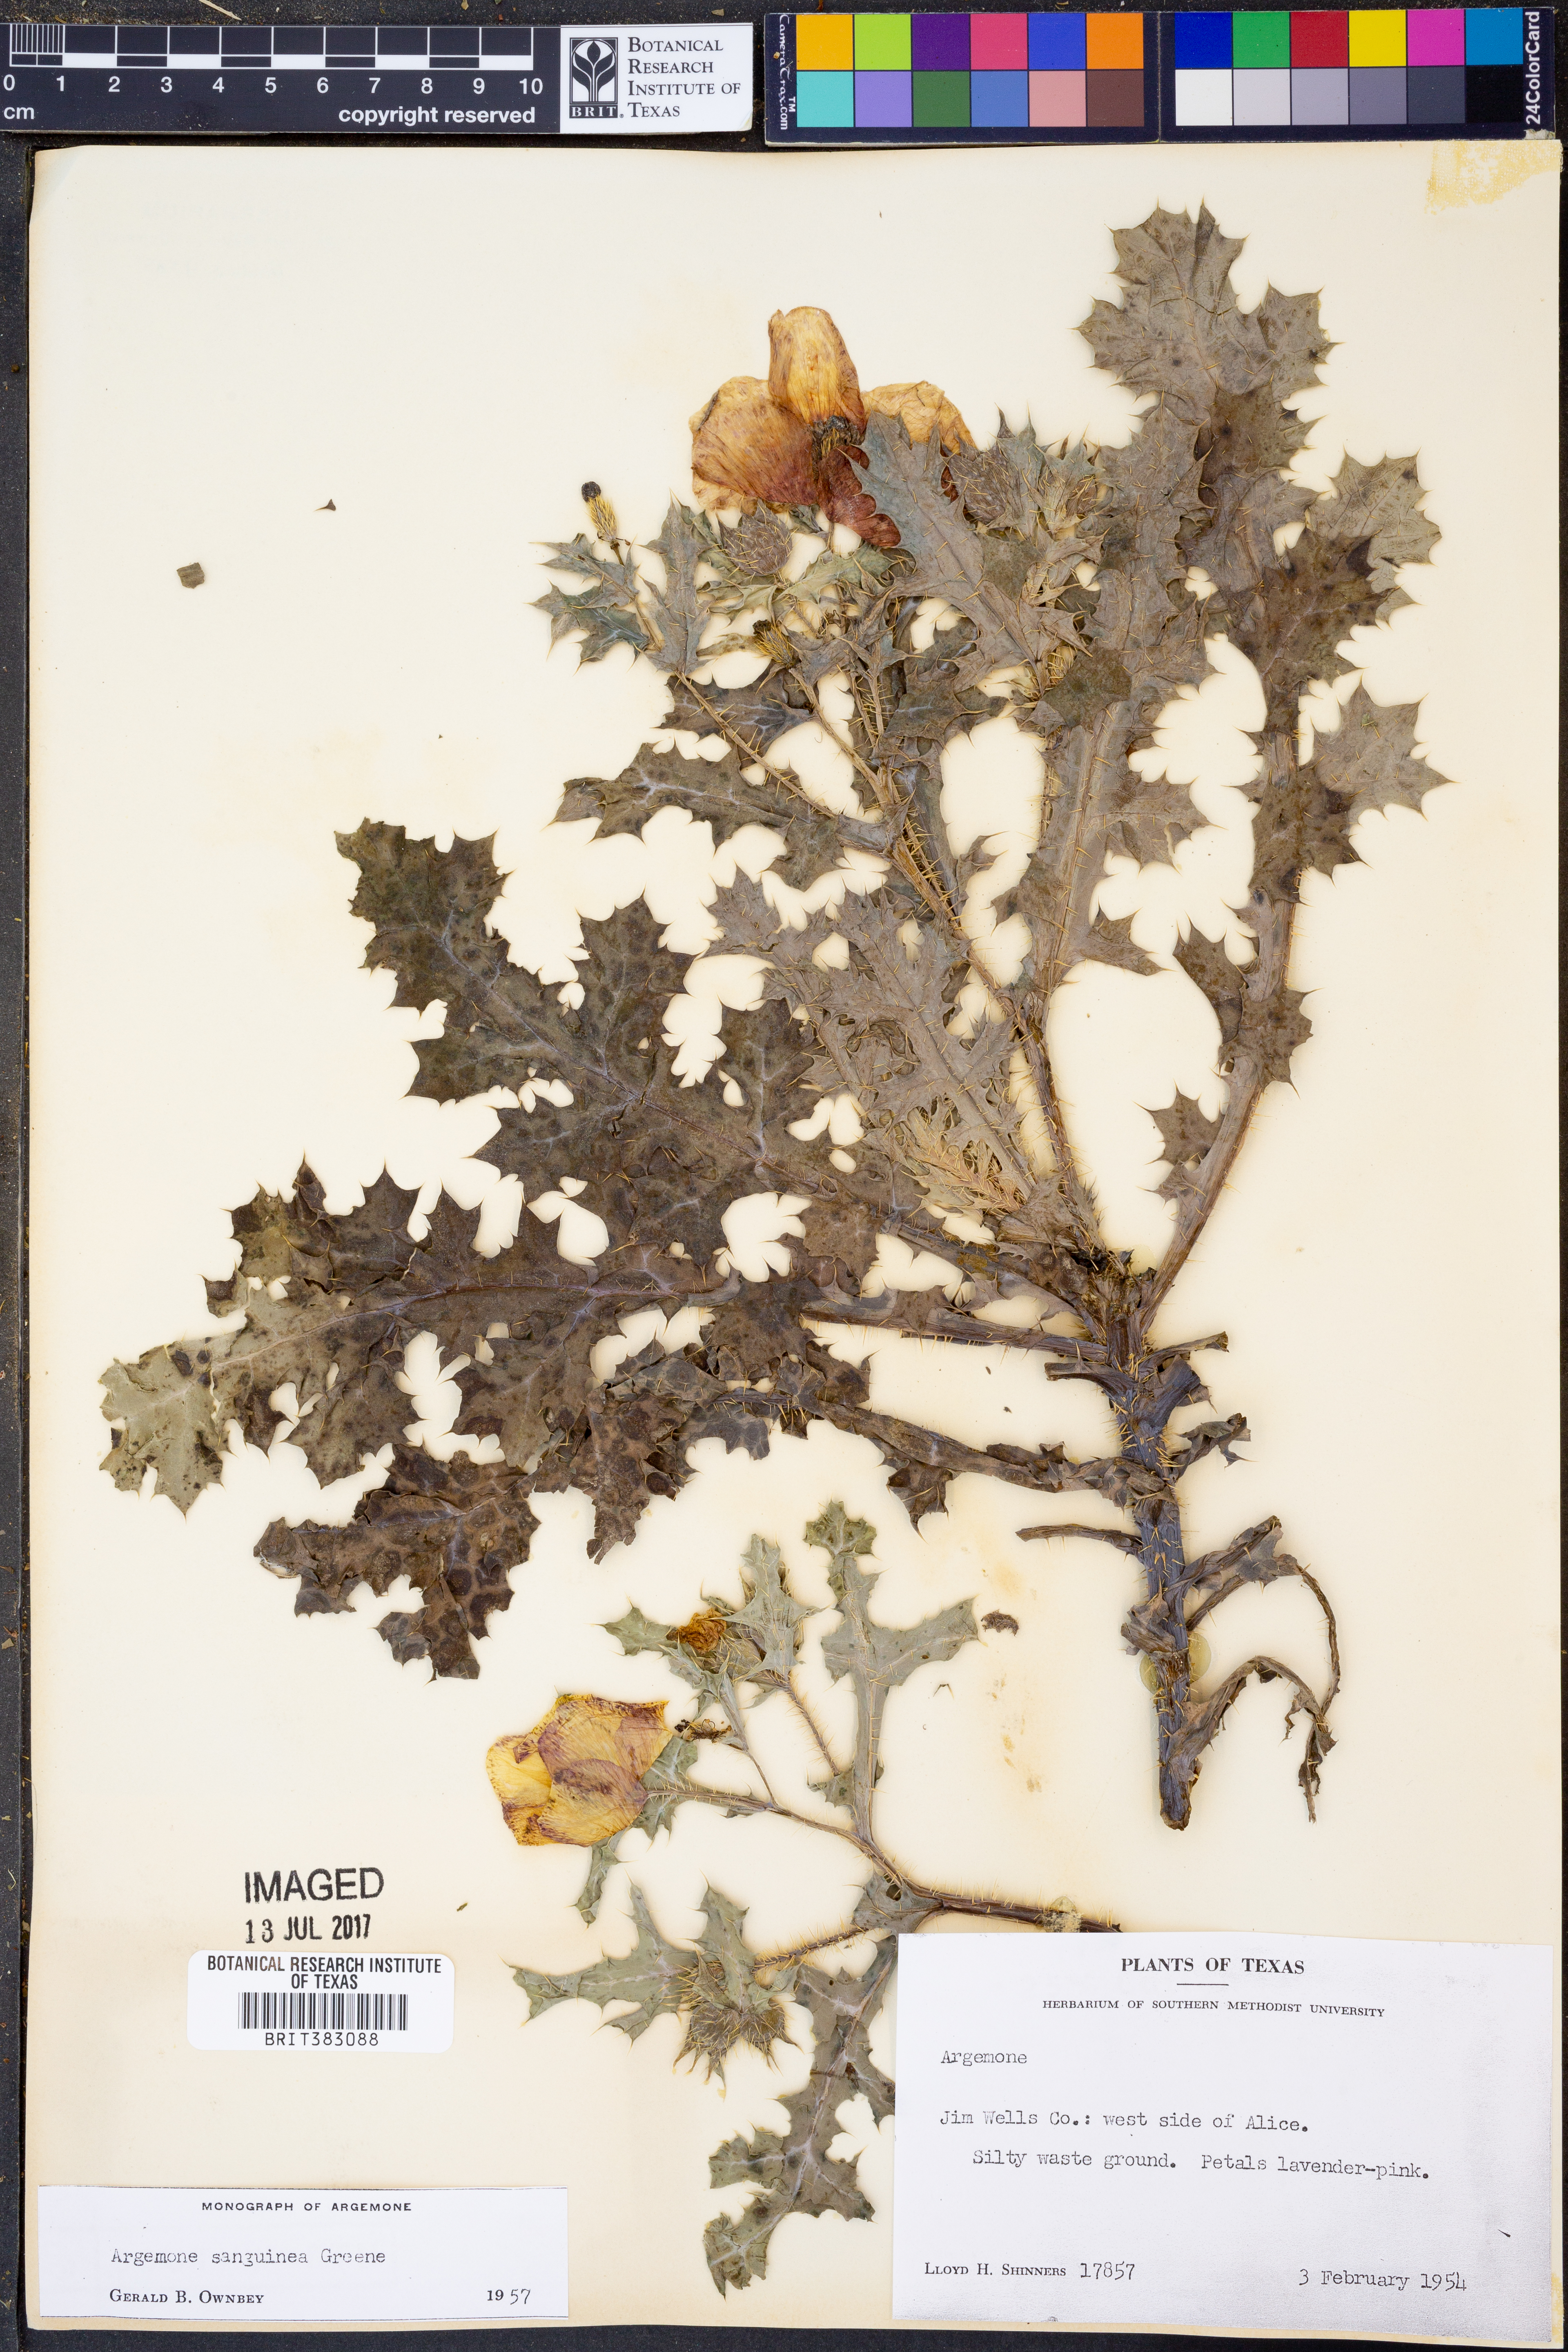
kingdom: Plantae
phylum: Tracheophyta
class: Magnoliopsida
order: Ranunculales
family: Papaveraceae
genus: Argemone
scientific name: Argemone sanguinea
